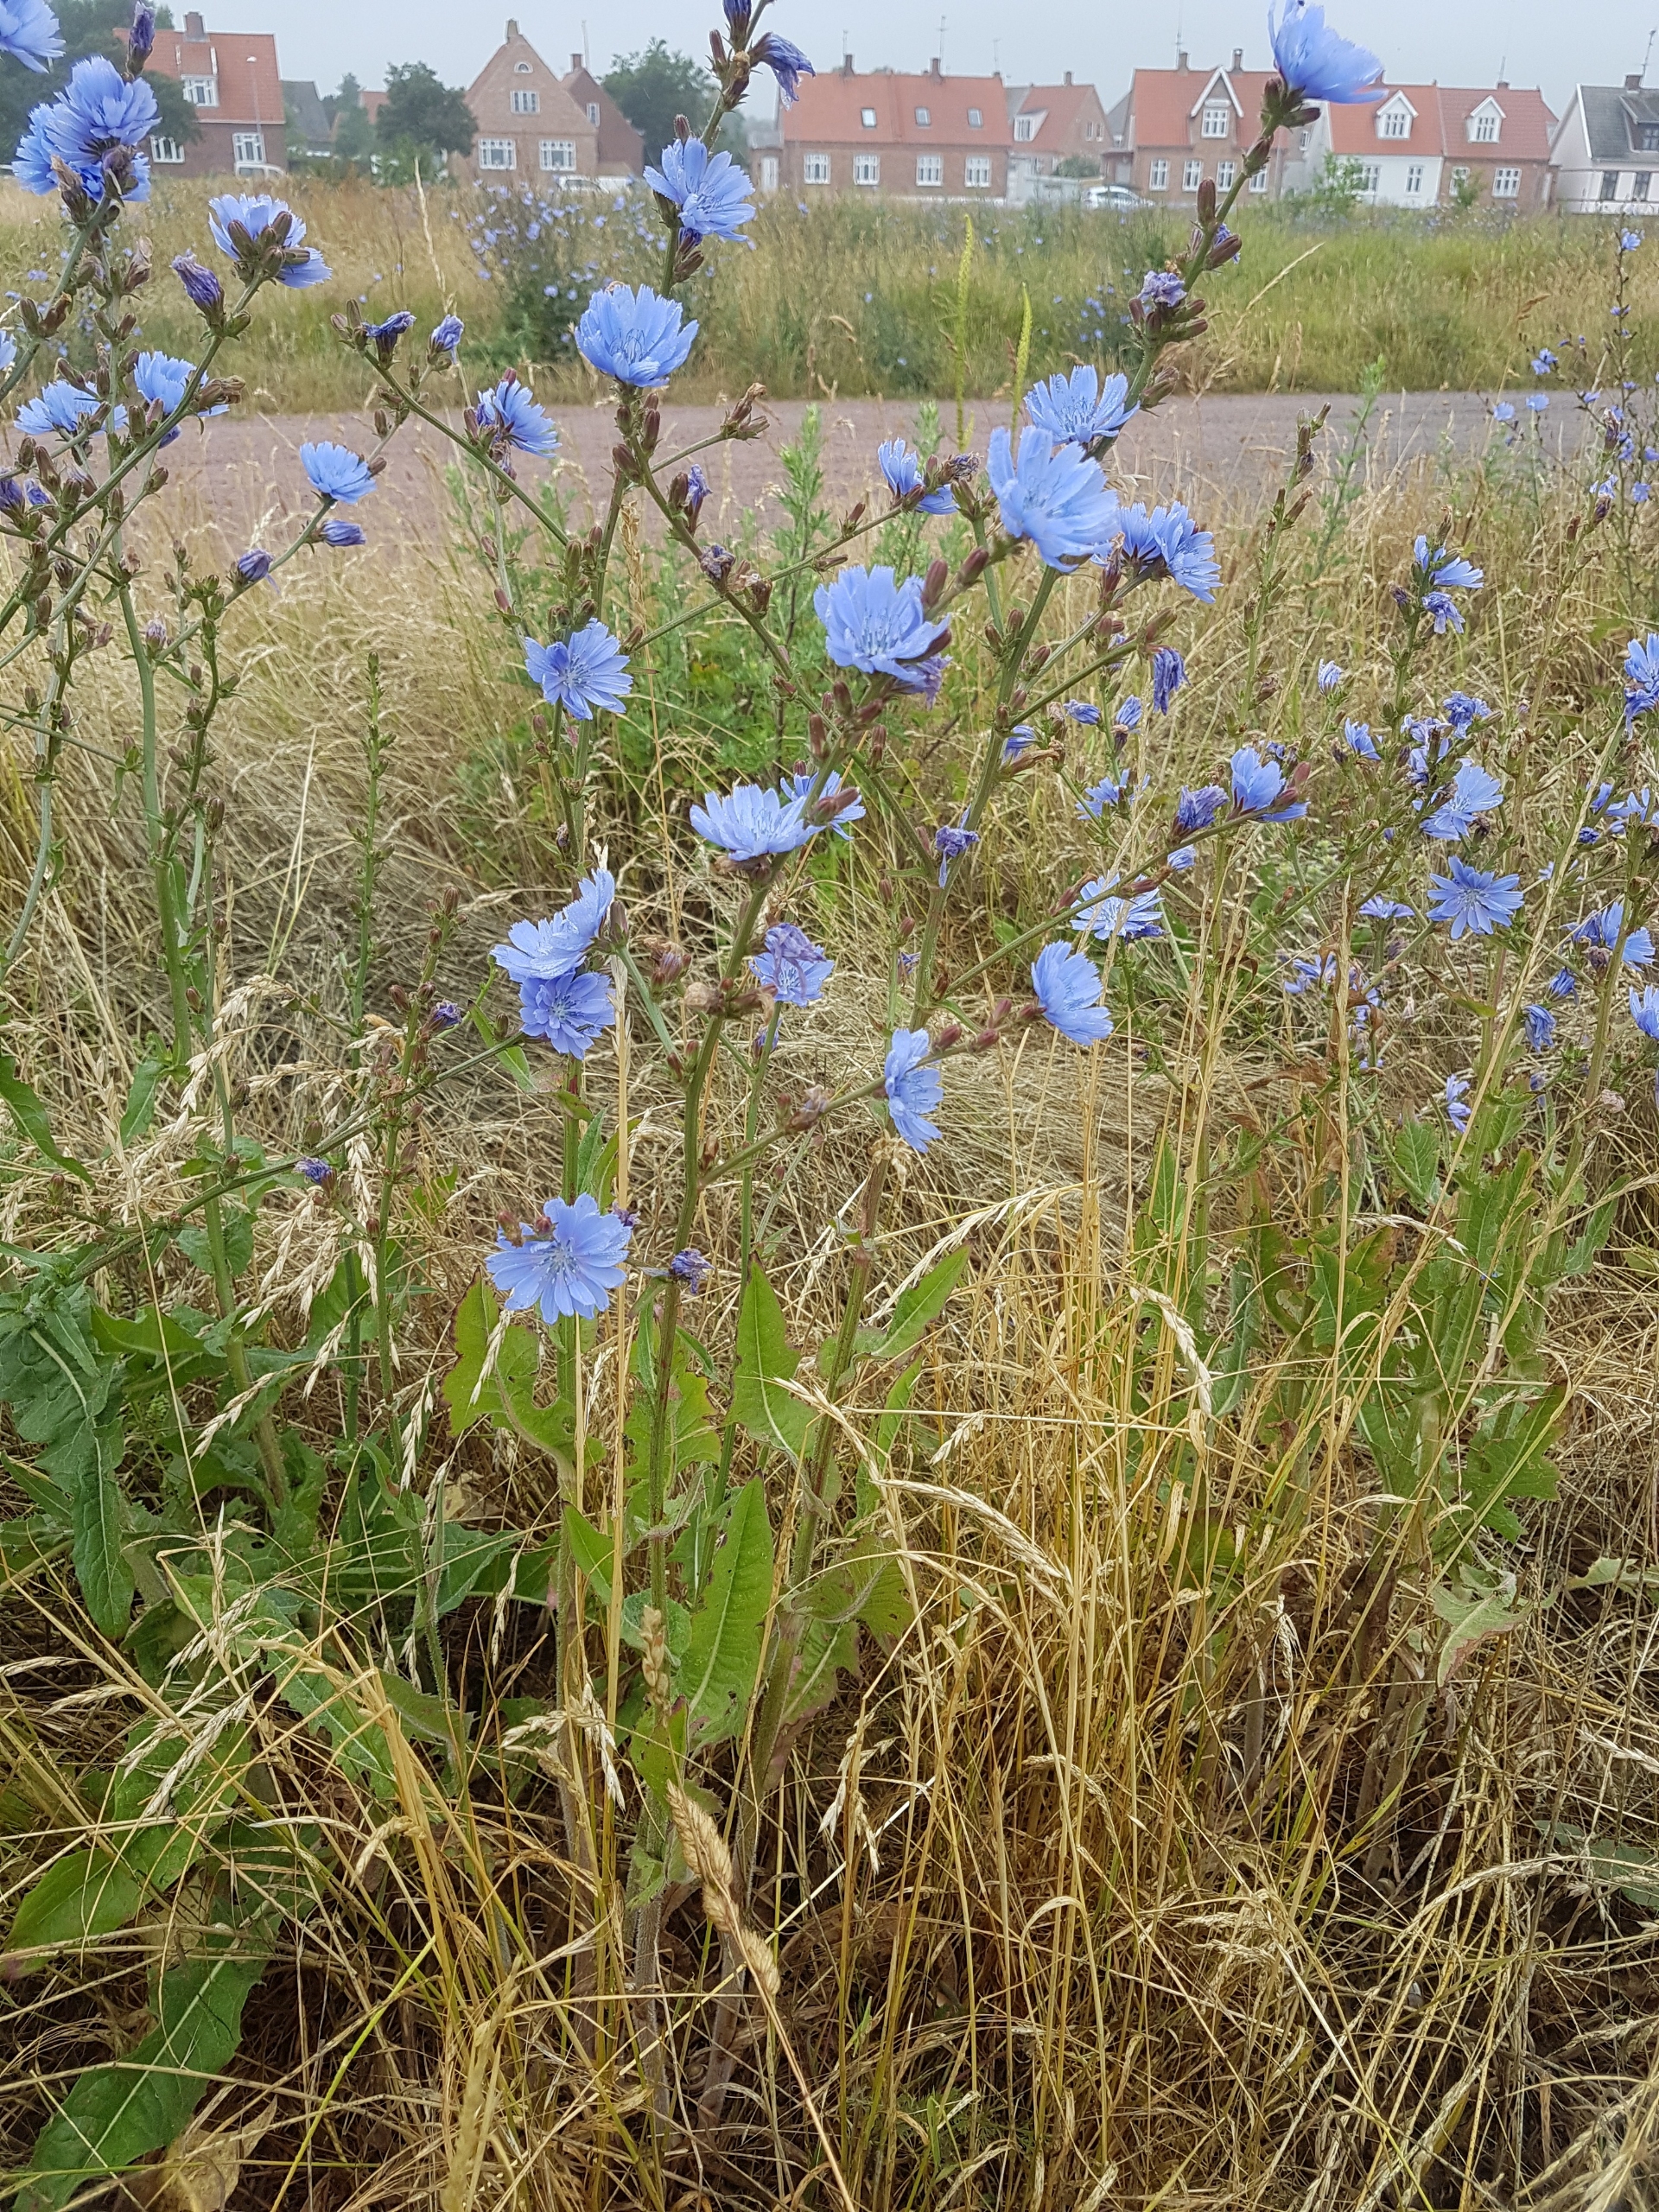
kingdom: Plantae
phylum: Tracheophyta
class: Magnoliopsida
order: Asterales
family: Asteraceae
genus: Cichorium
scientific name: Cichorium intybus
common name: Cikorie
